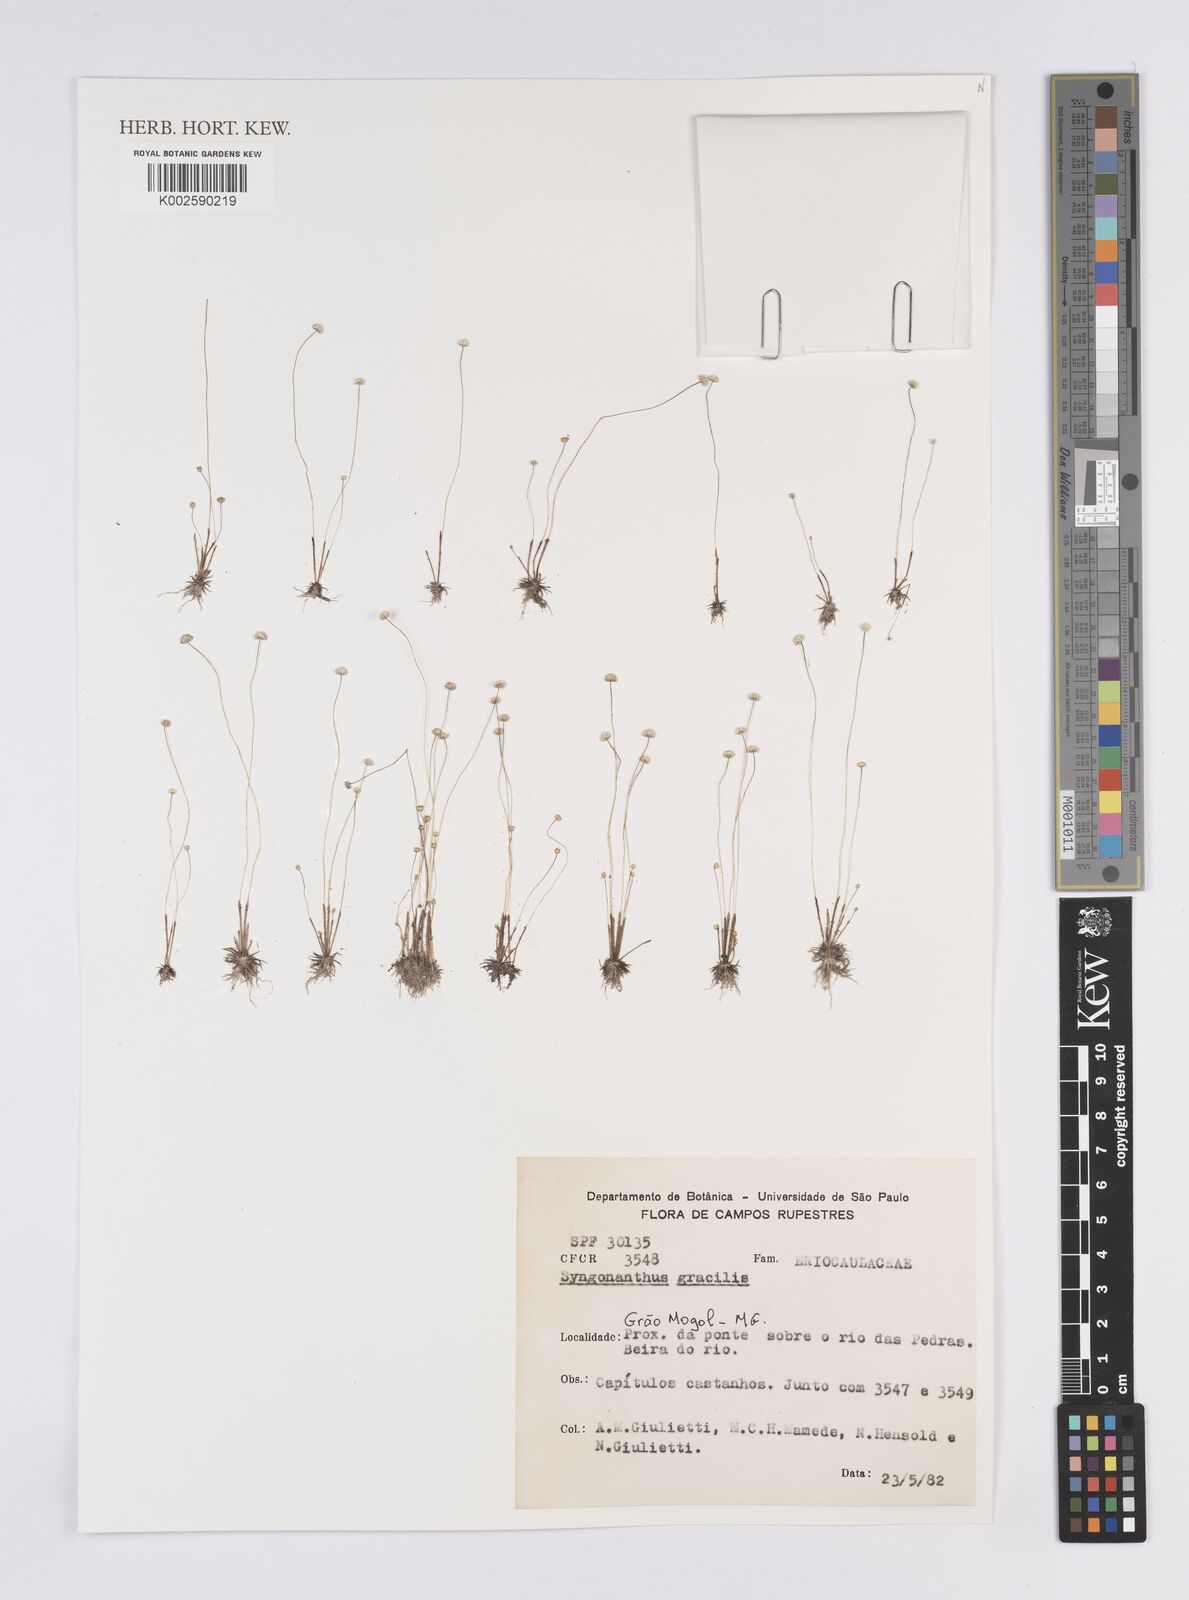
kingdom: Plantae
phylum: Tracheophyta
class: Liliopsida
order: Poales
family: Eriocaulaceae
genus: Syngonanthus
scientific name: Syngonanthus gracilis
